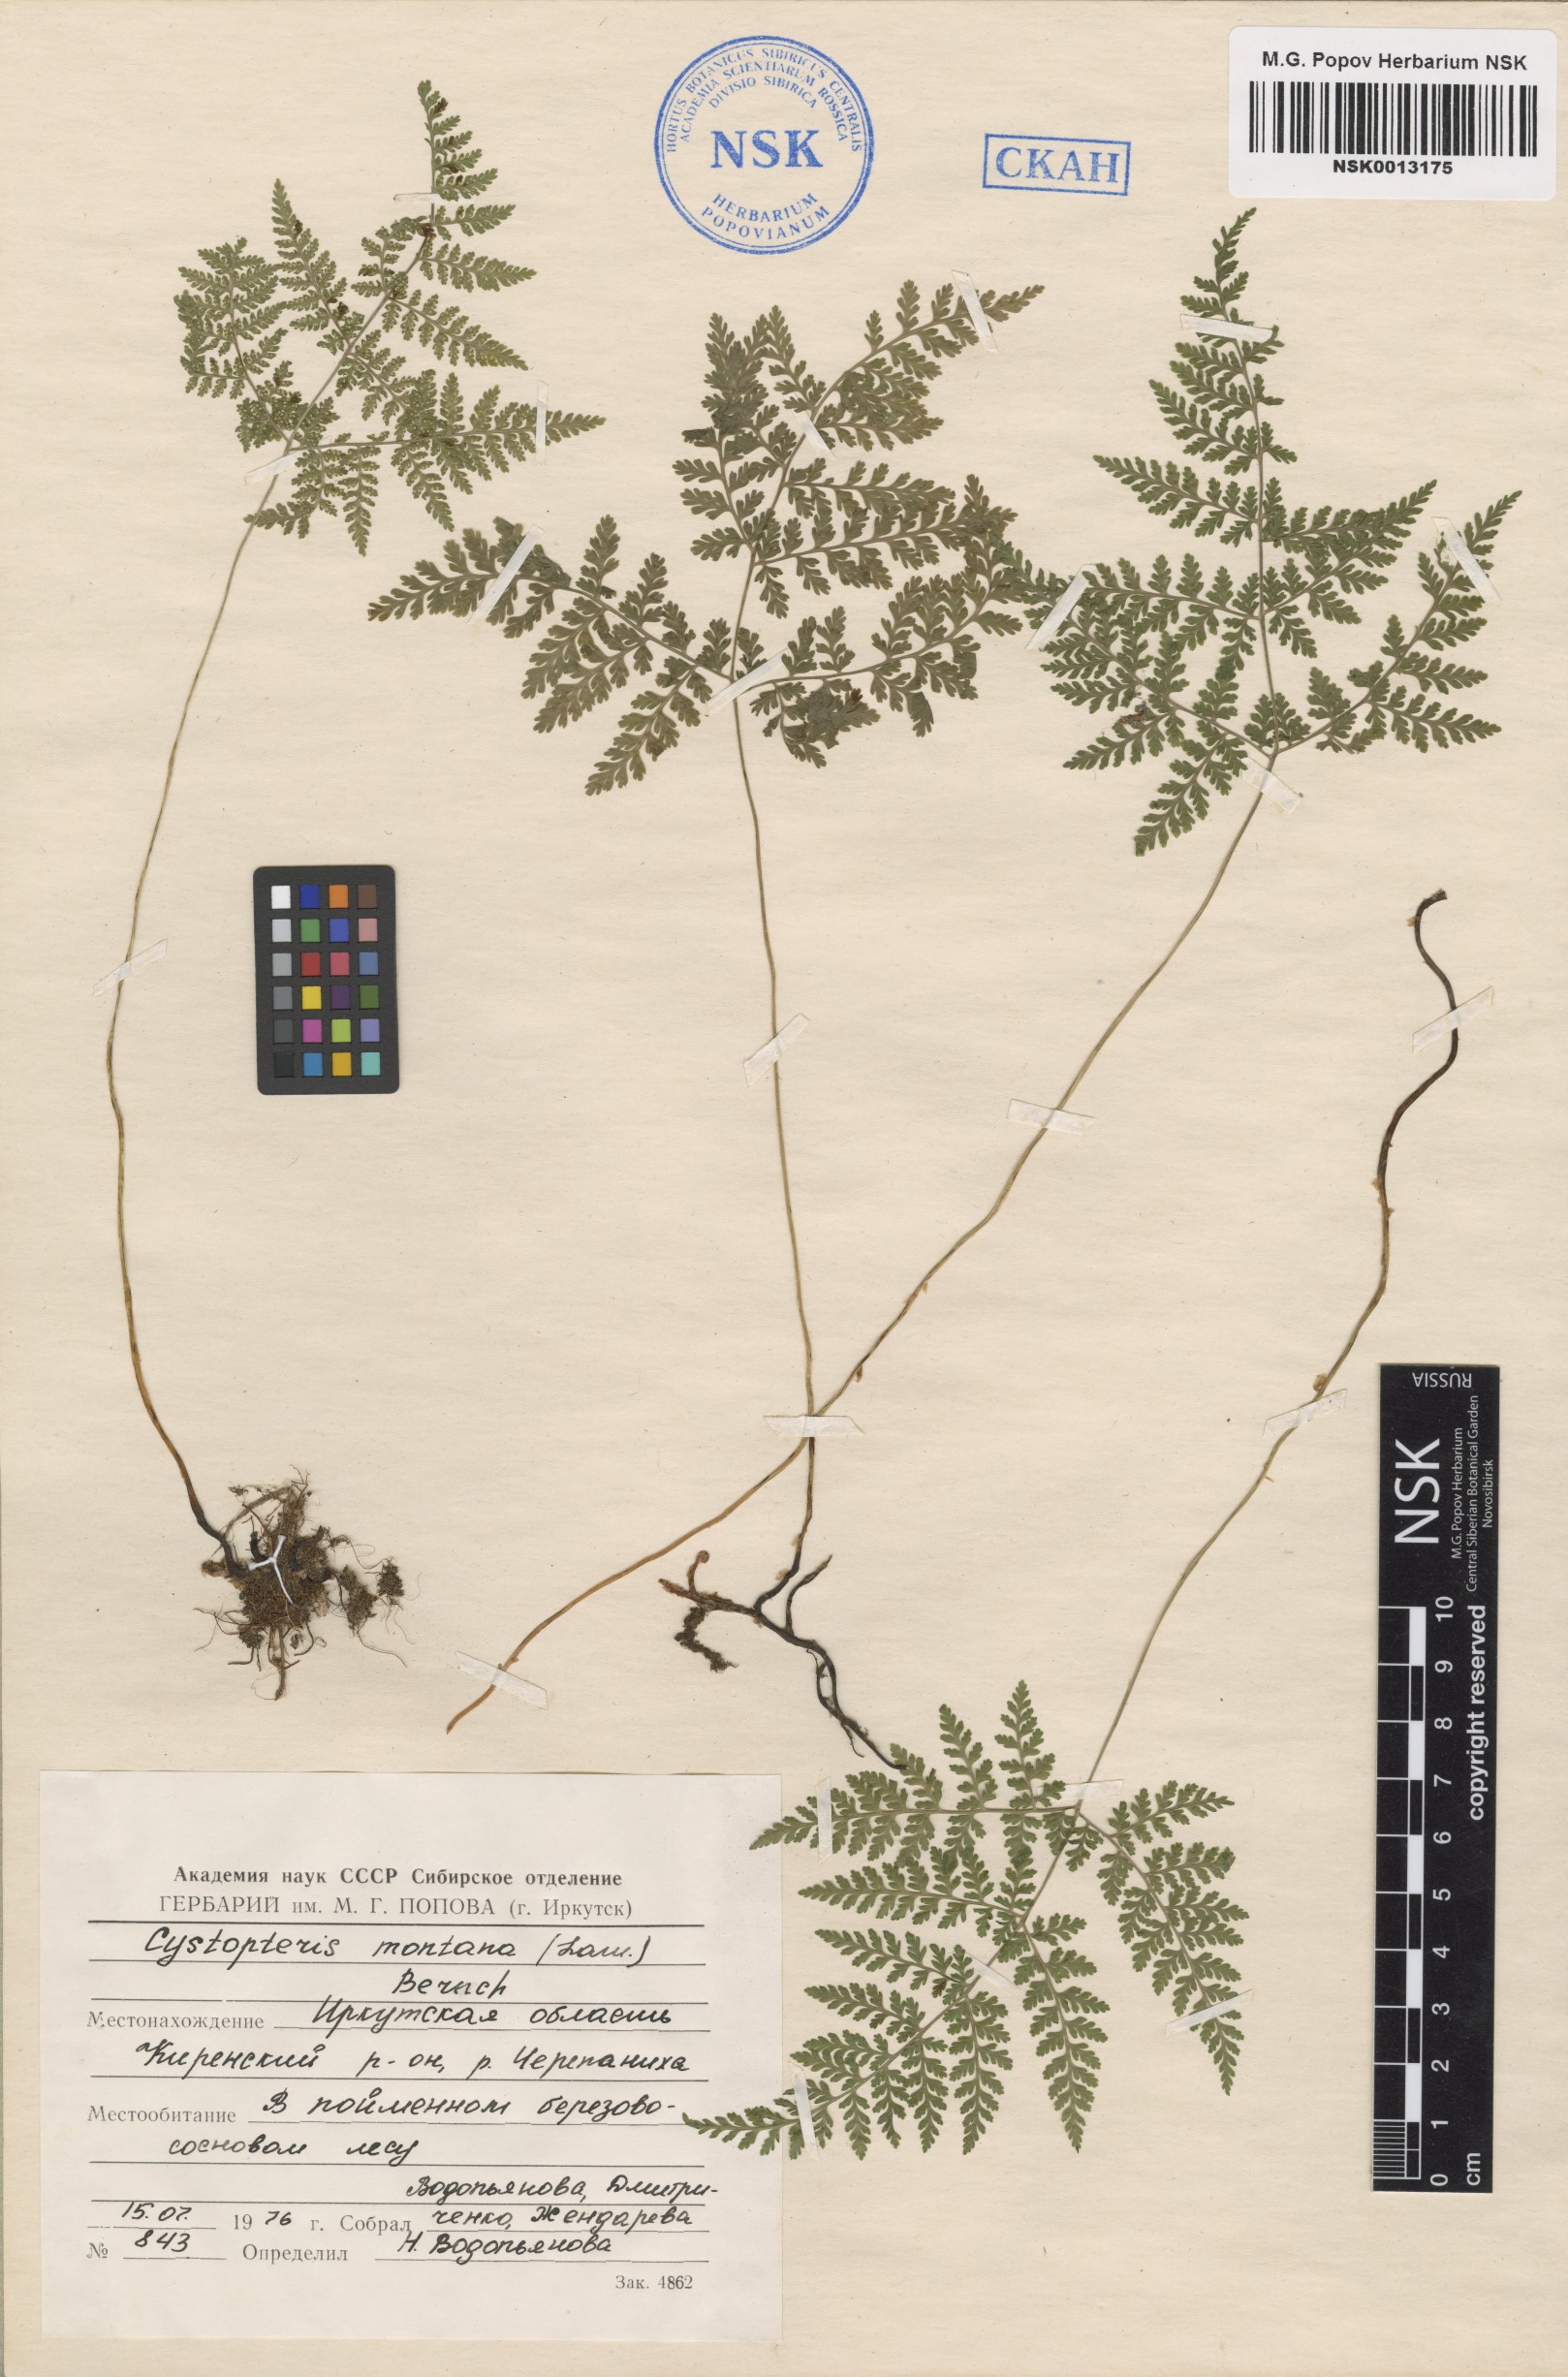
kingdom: Plantae
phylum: Tracheophyta
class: Polypodiopsida
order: Polypodiales
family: Cystopteridaceae
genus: Cystopteris
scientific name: Cystopteris montana
